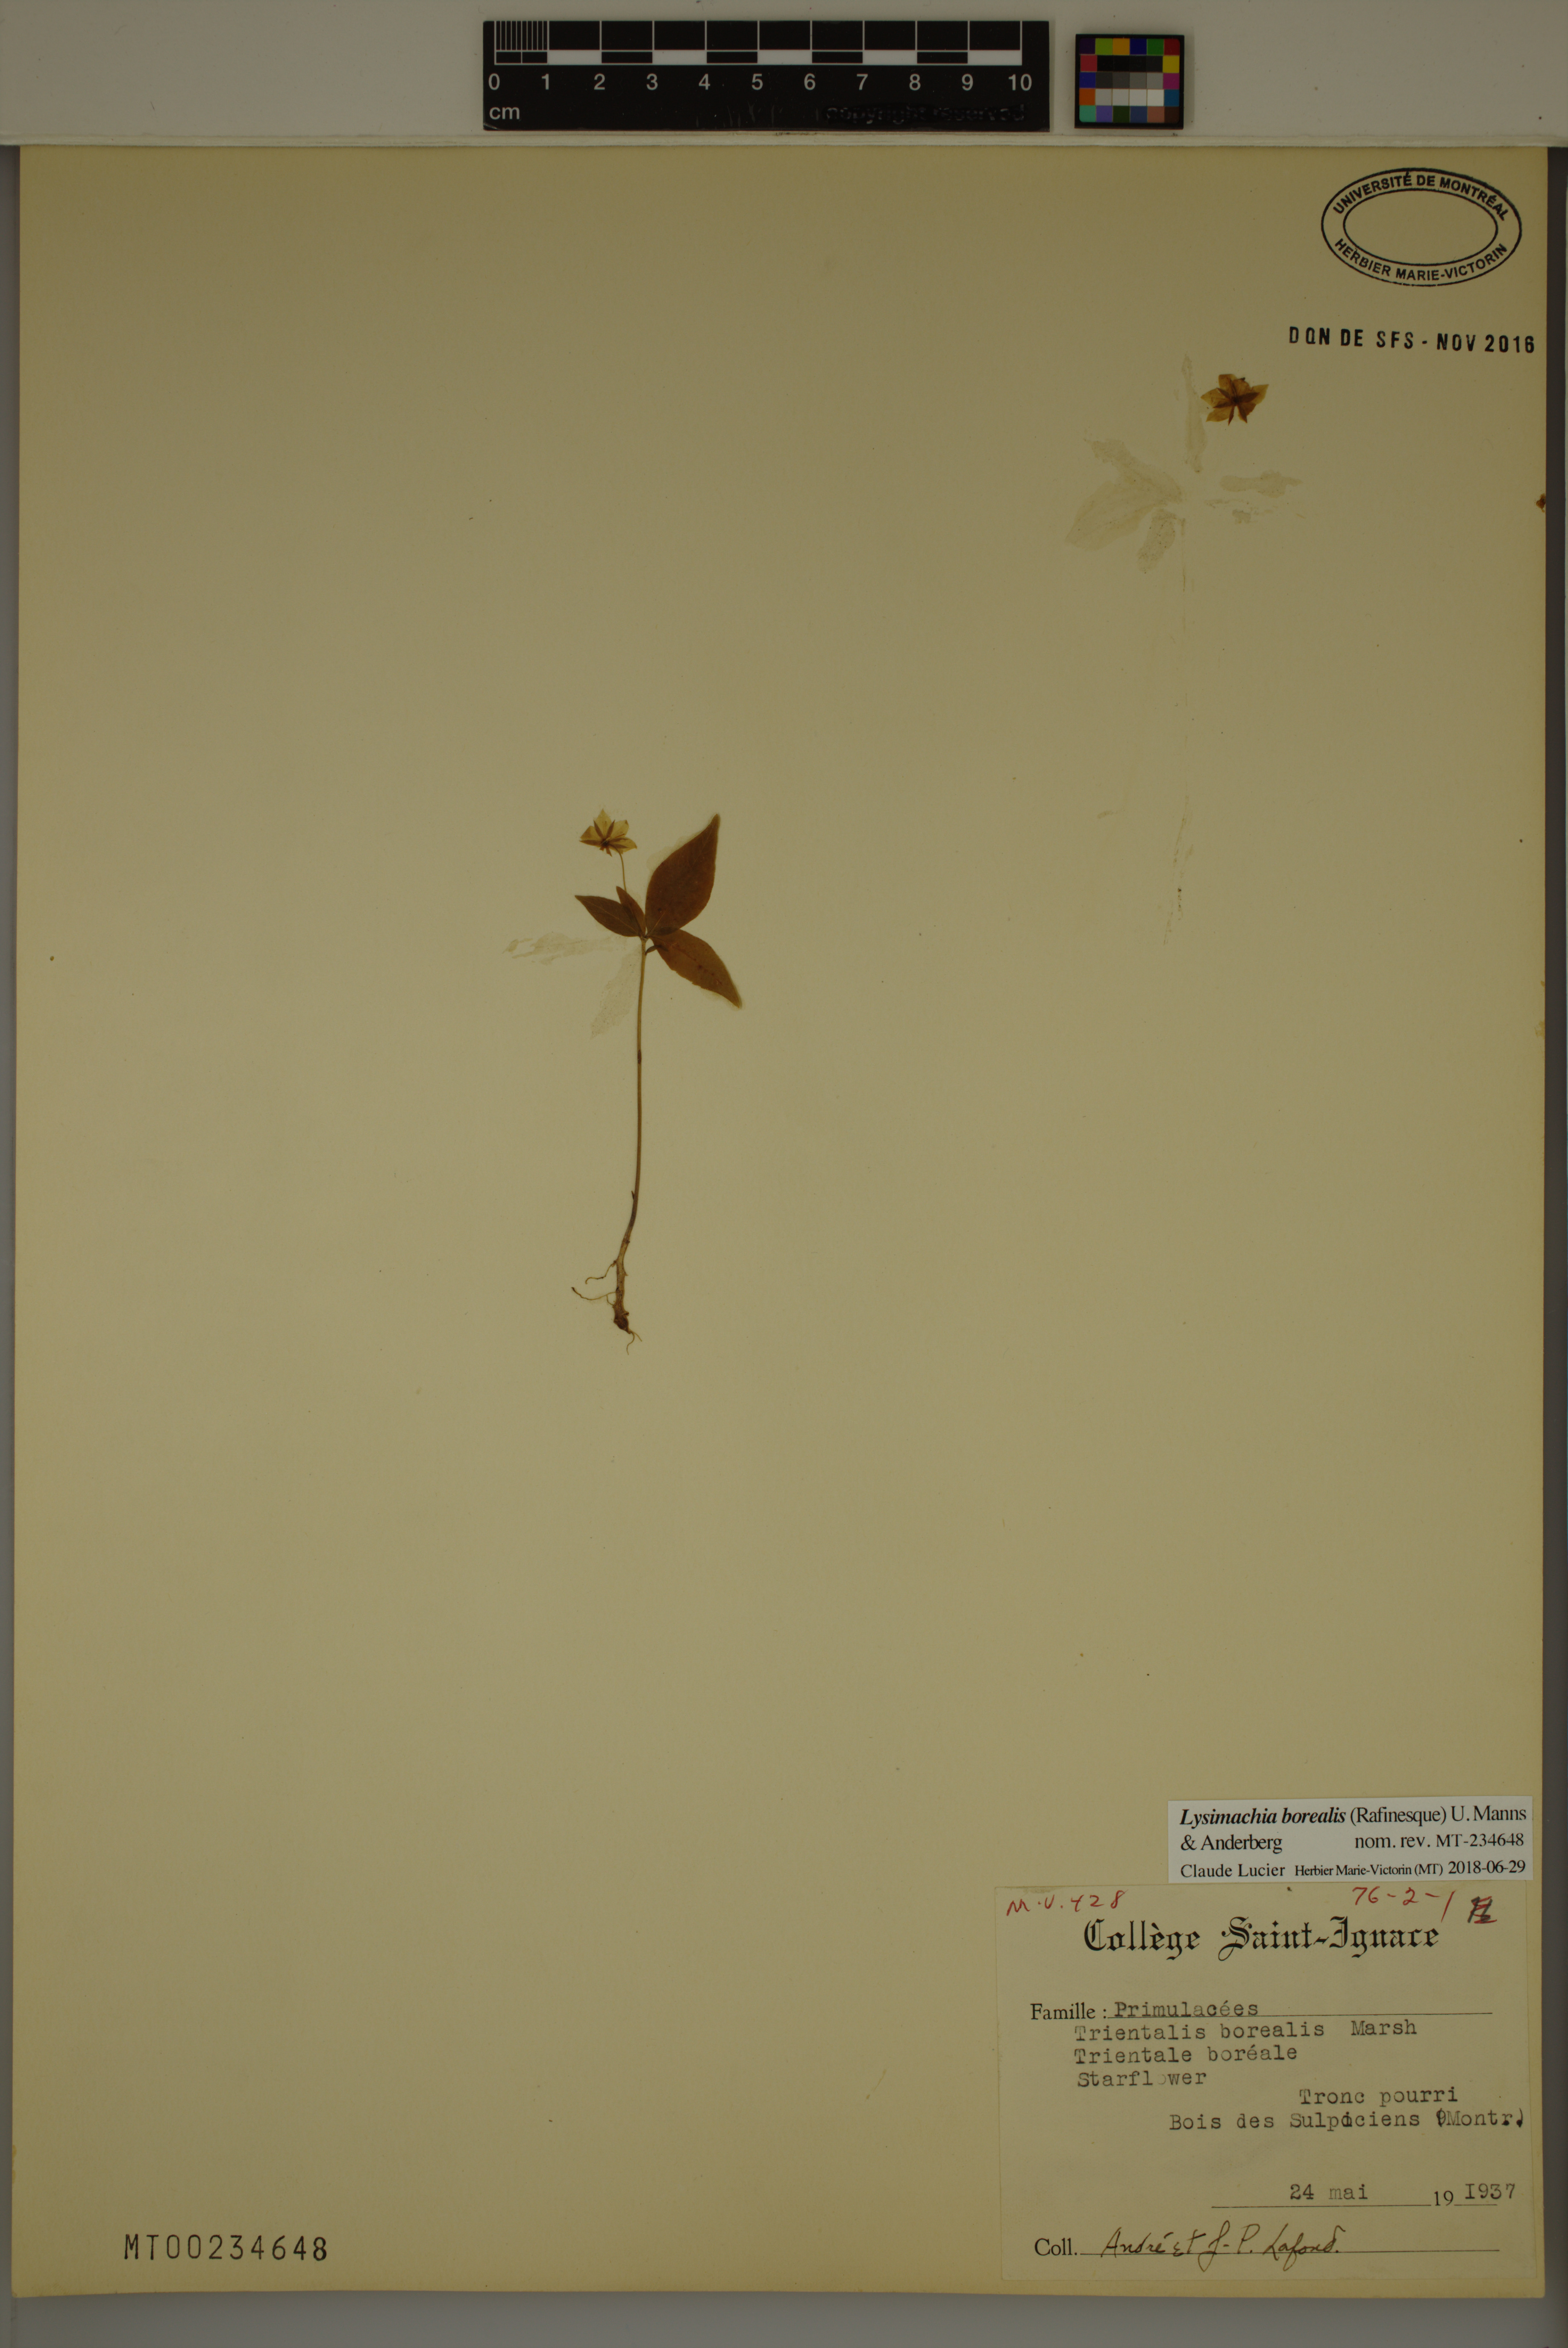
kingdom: Plantae
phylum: Tracheophyta
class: Magnoliopsida
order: Ericales
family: Primulaceae
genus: Lysimachia
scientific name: Lysimachia borealis
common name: American starflower
